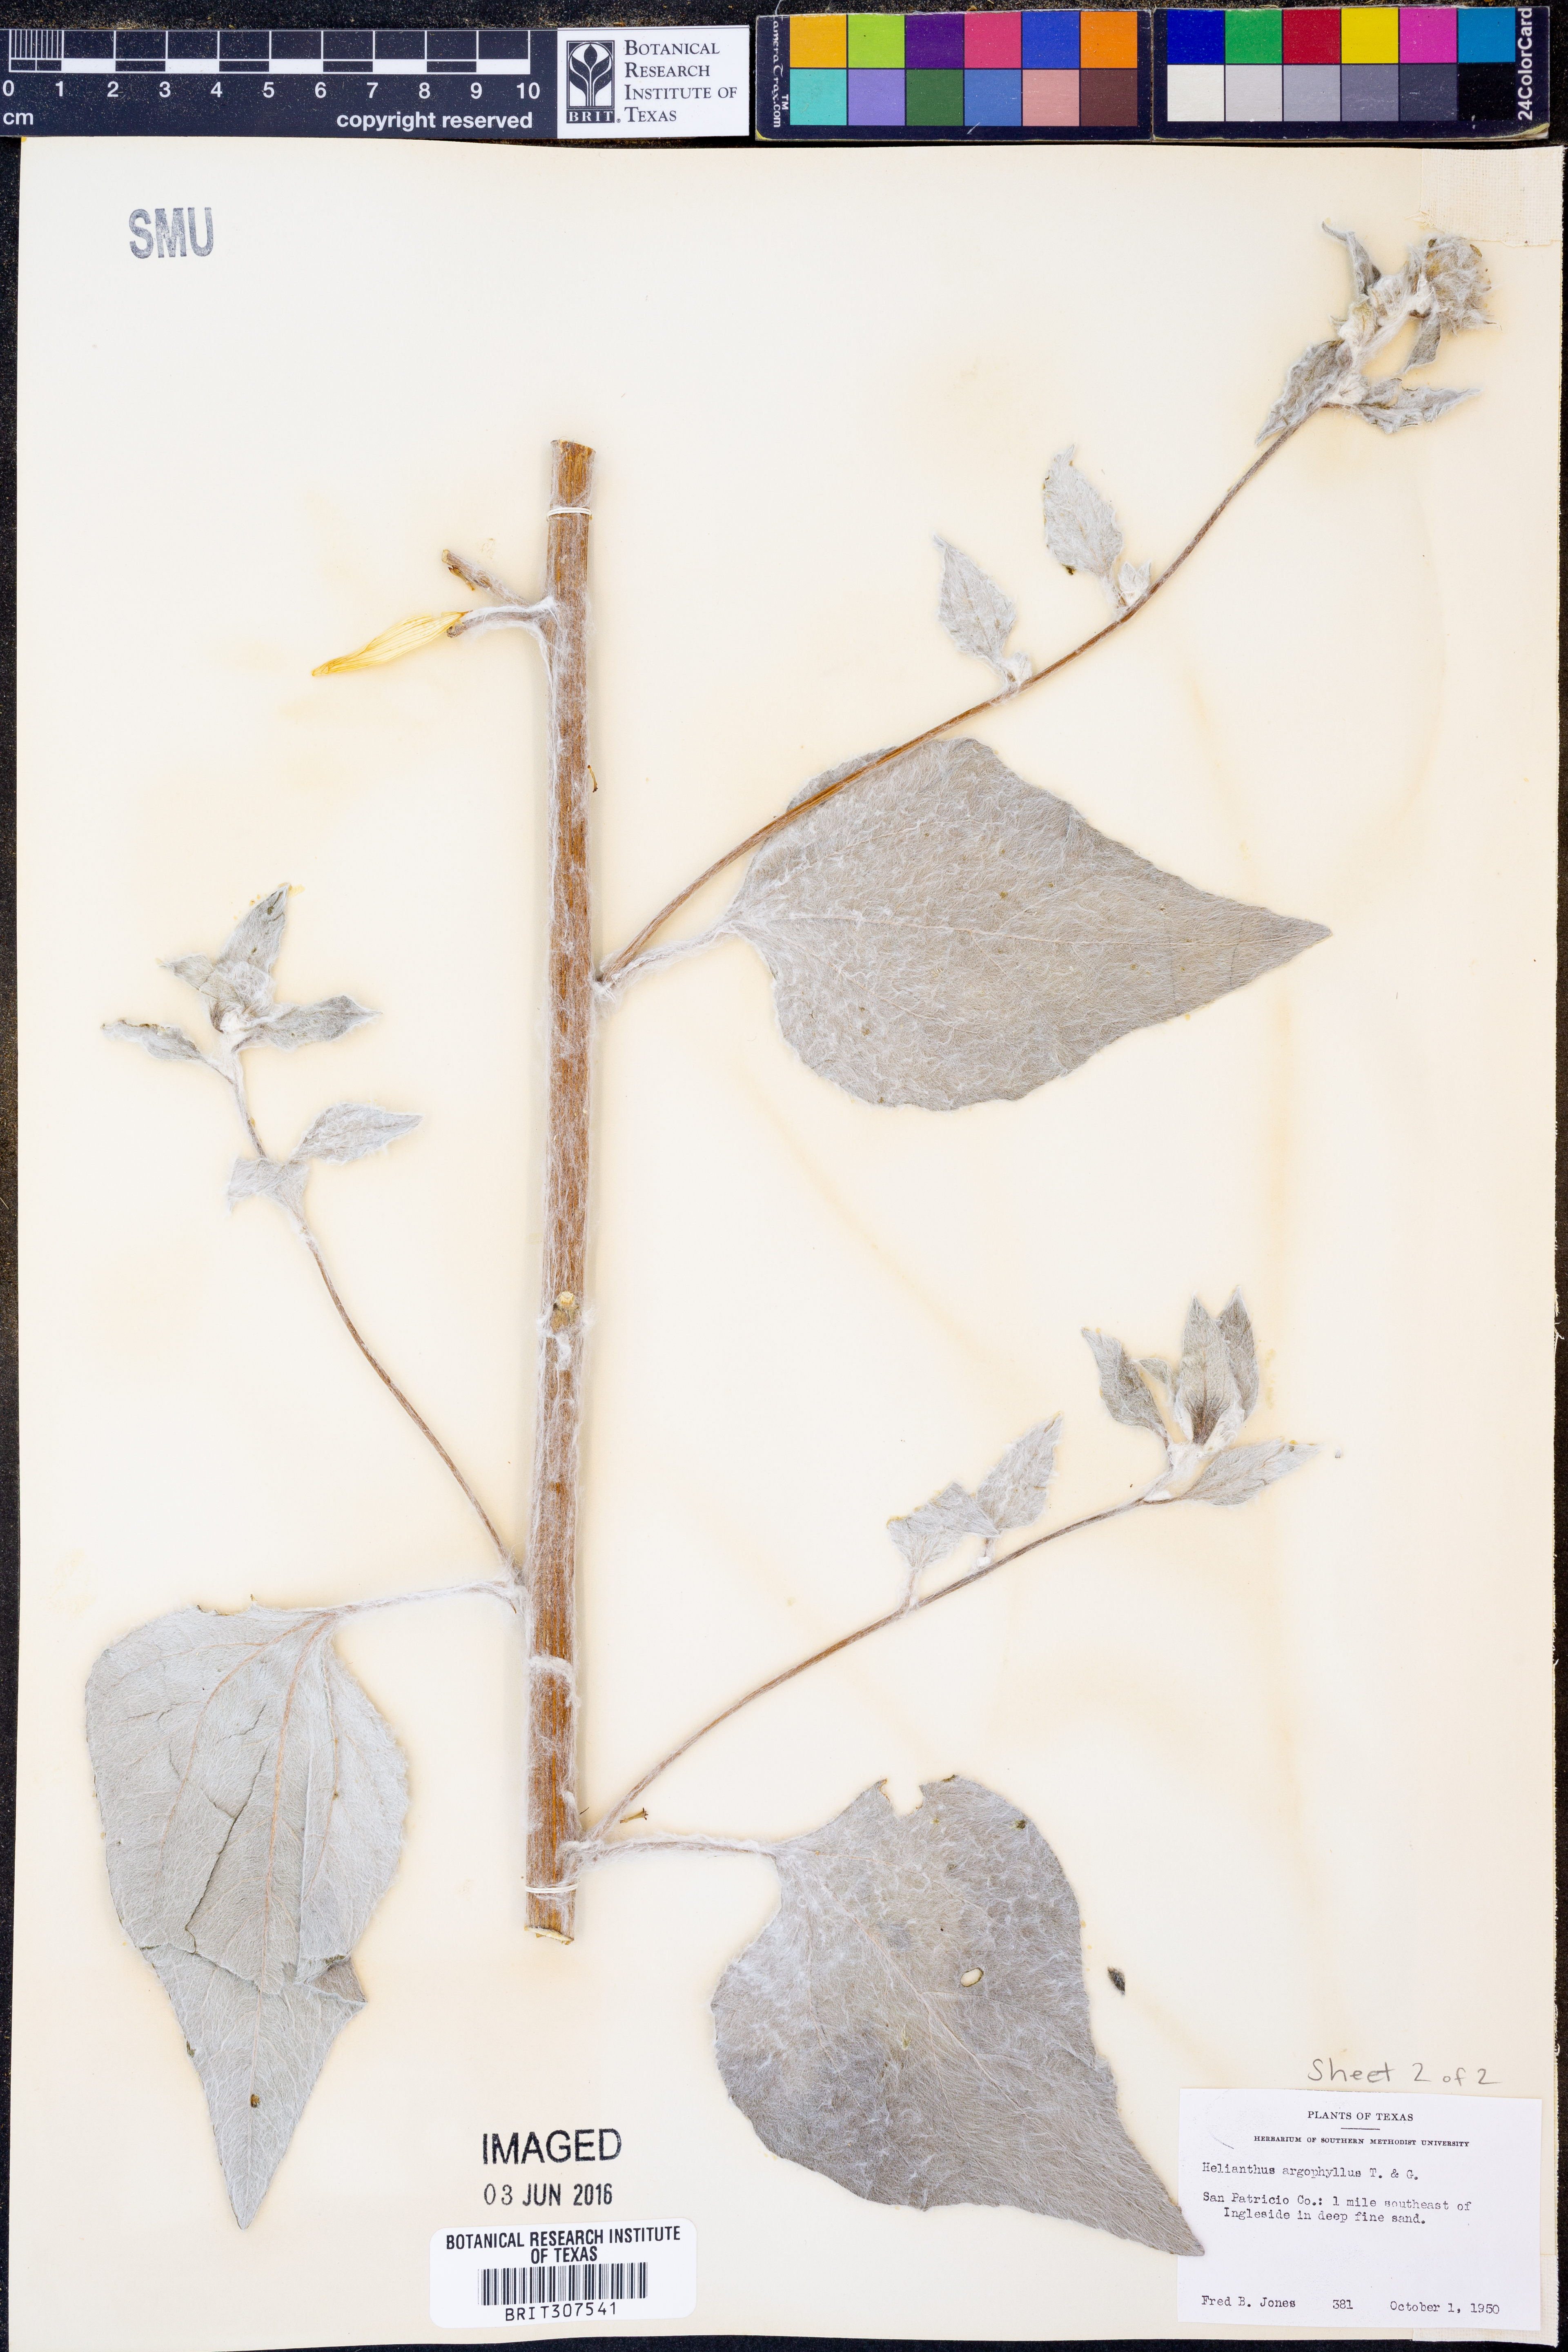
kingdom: Plantae
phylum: Tracheophyta
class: Magnoliopsida
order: Asterales
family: Asteraceae
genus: Helianthus
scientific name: Helianthus argophyllus
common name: Silverleaf sunflower
